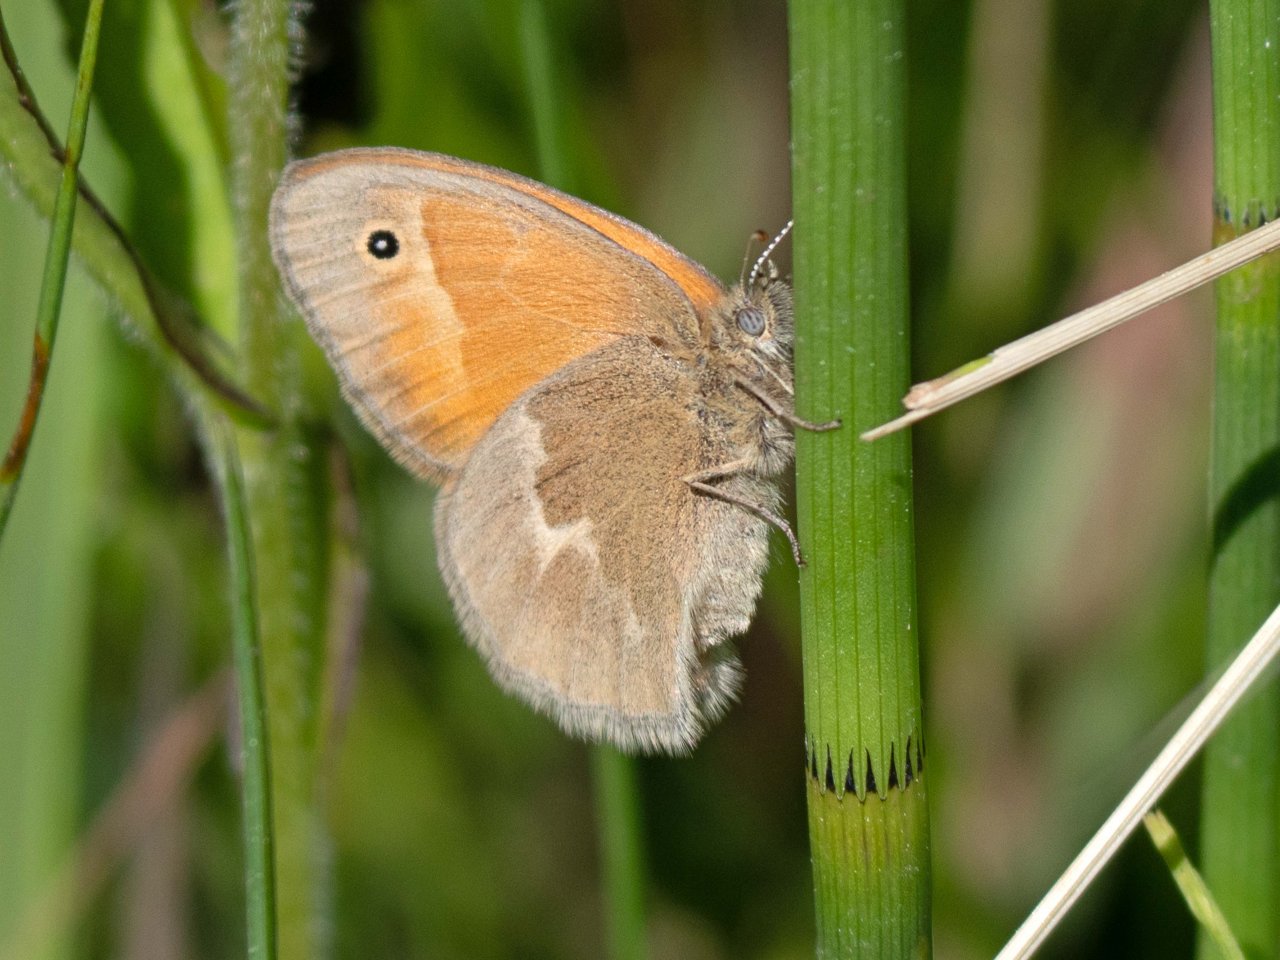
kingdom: Animalia
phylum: Arthropoda
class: Insecta
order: Lepidoptera
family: Nymphalidae
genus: Coenonympha
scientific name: Coenonympha tullia
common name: Large Heath
